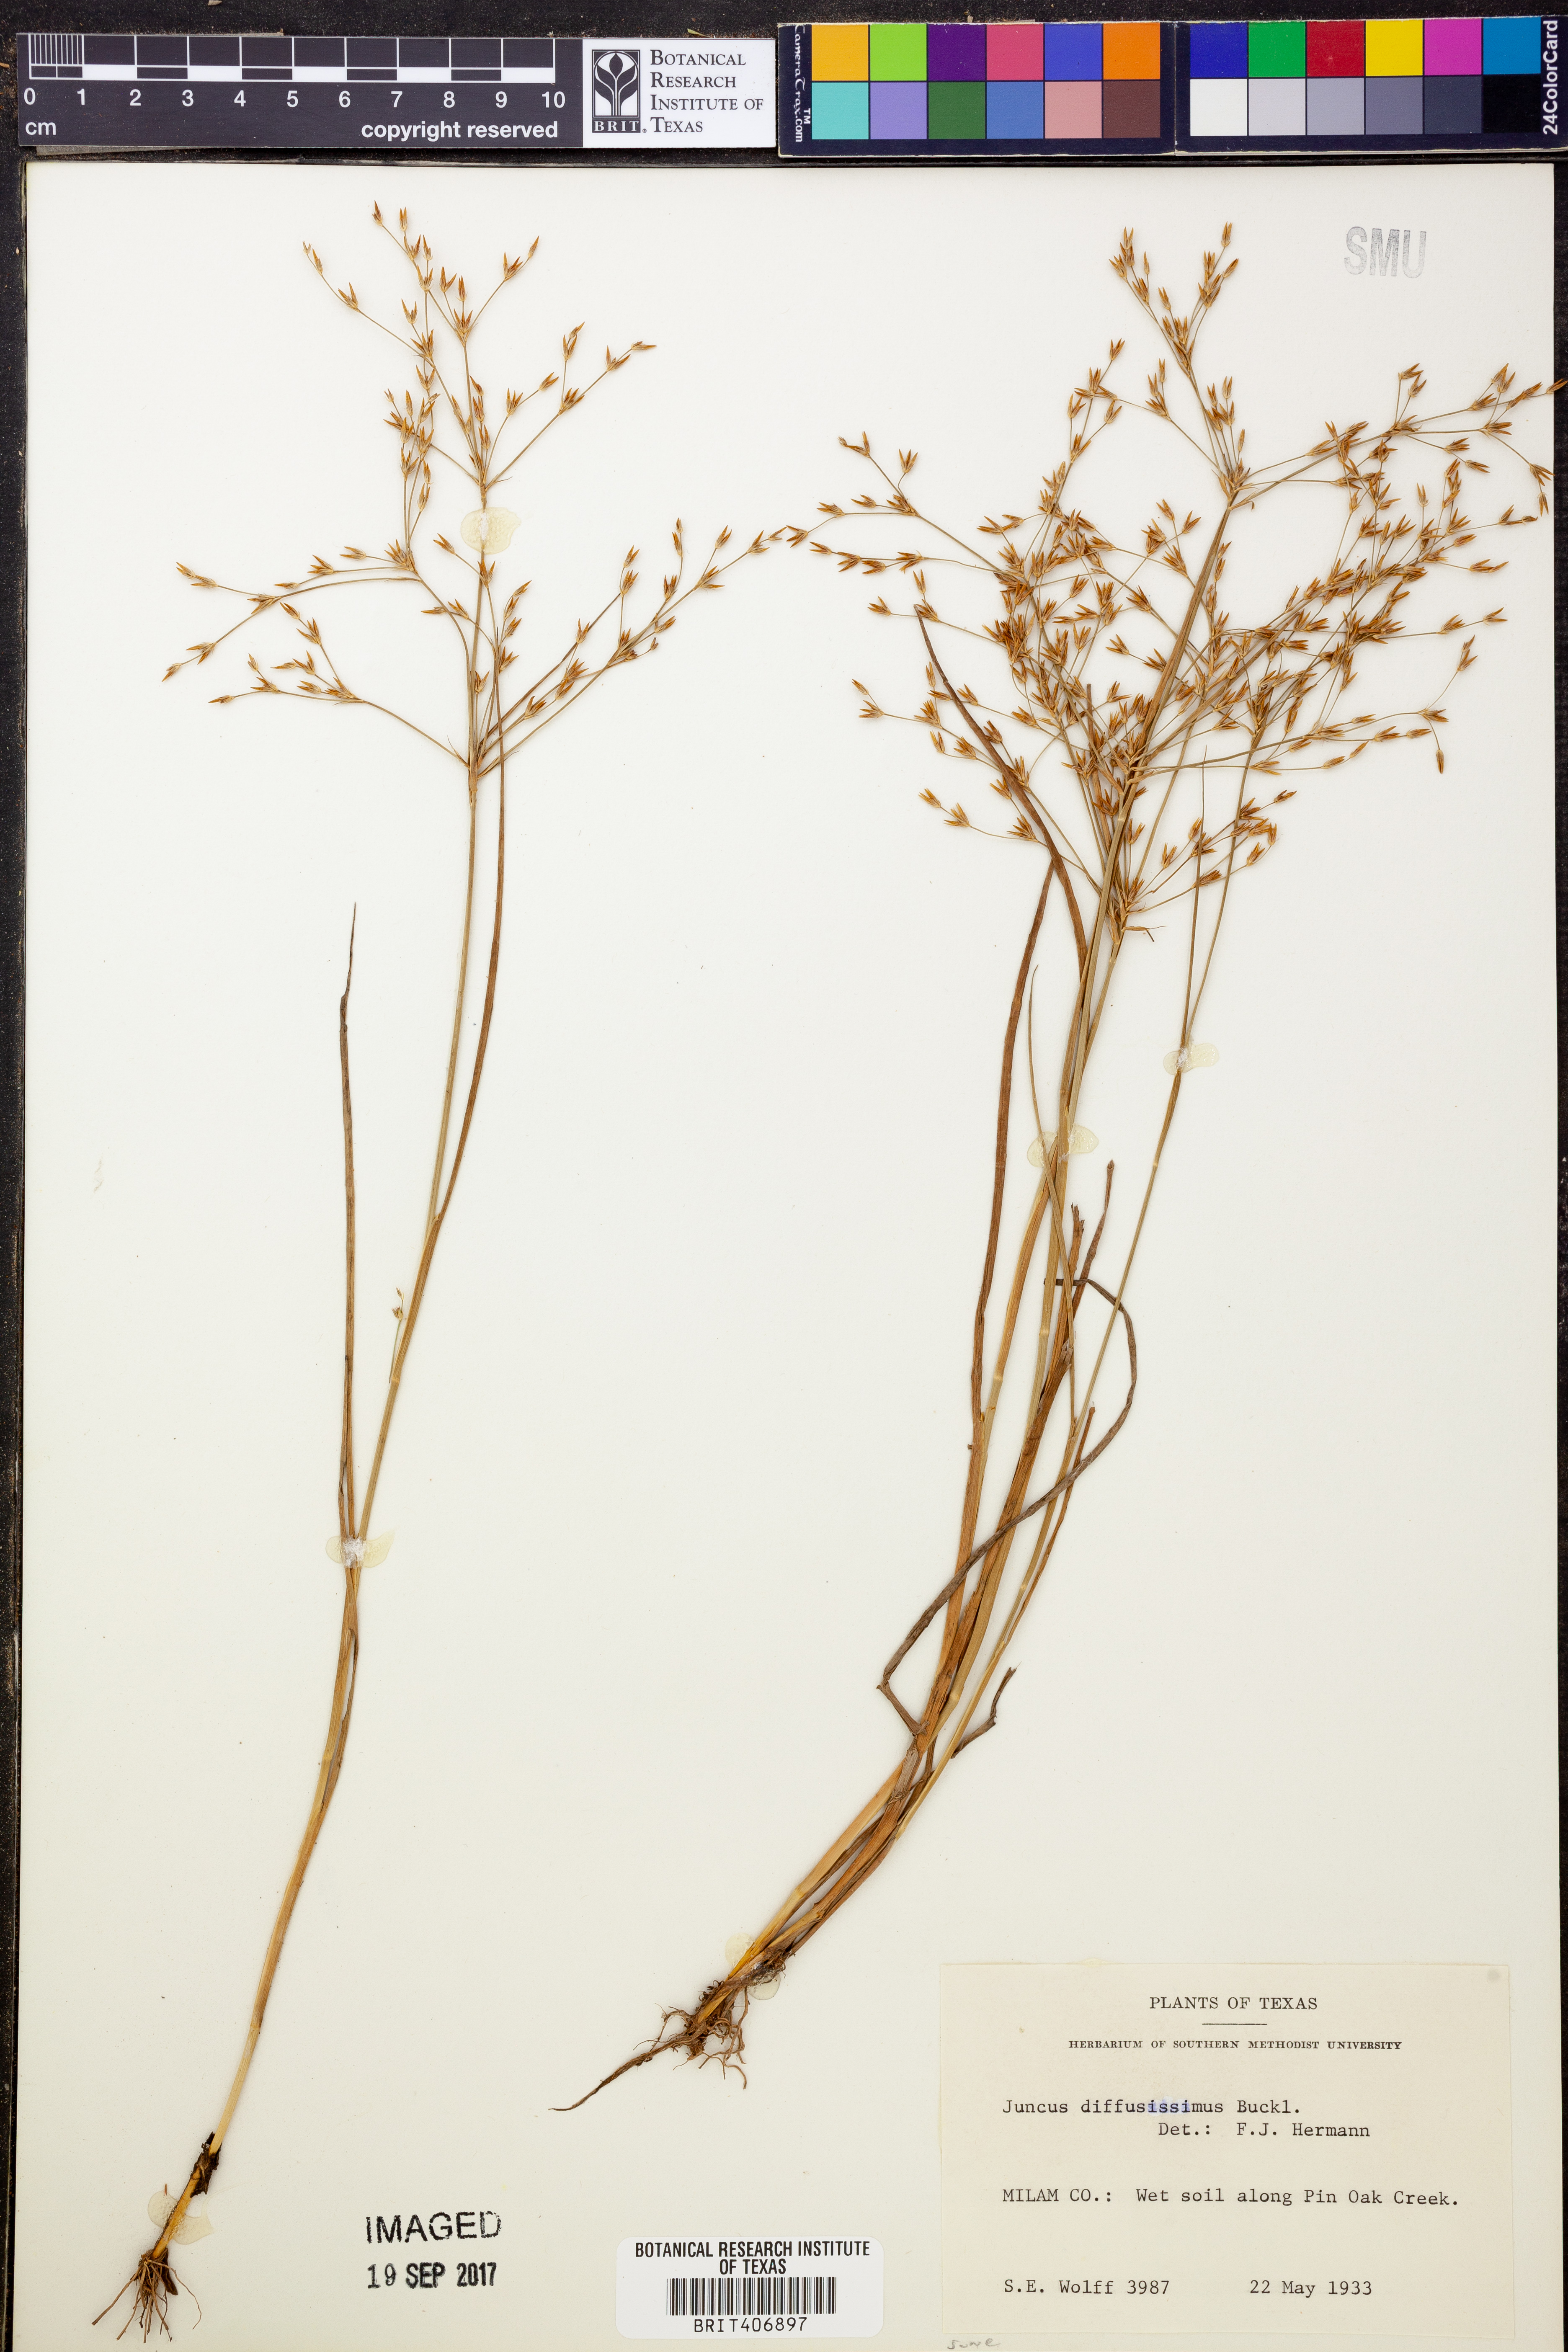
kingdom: Plantae
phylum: Tracheophyta
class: Liliopsida
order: Poales
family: Juncaceae
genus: Juncus
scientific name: Juncus diffusissimus
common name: Slimpod rush
